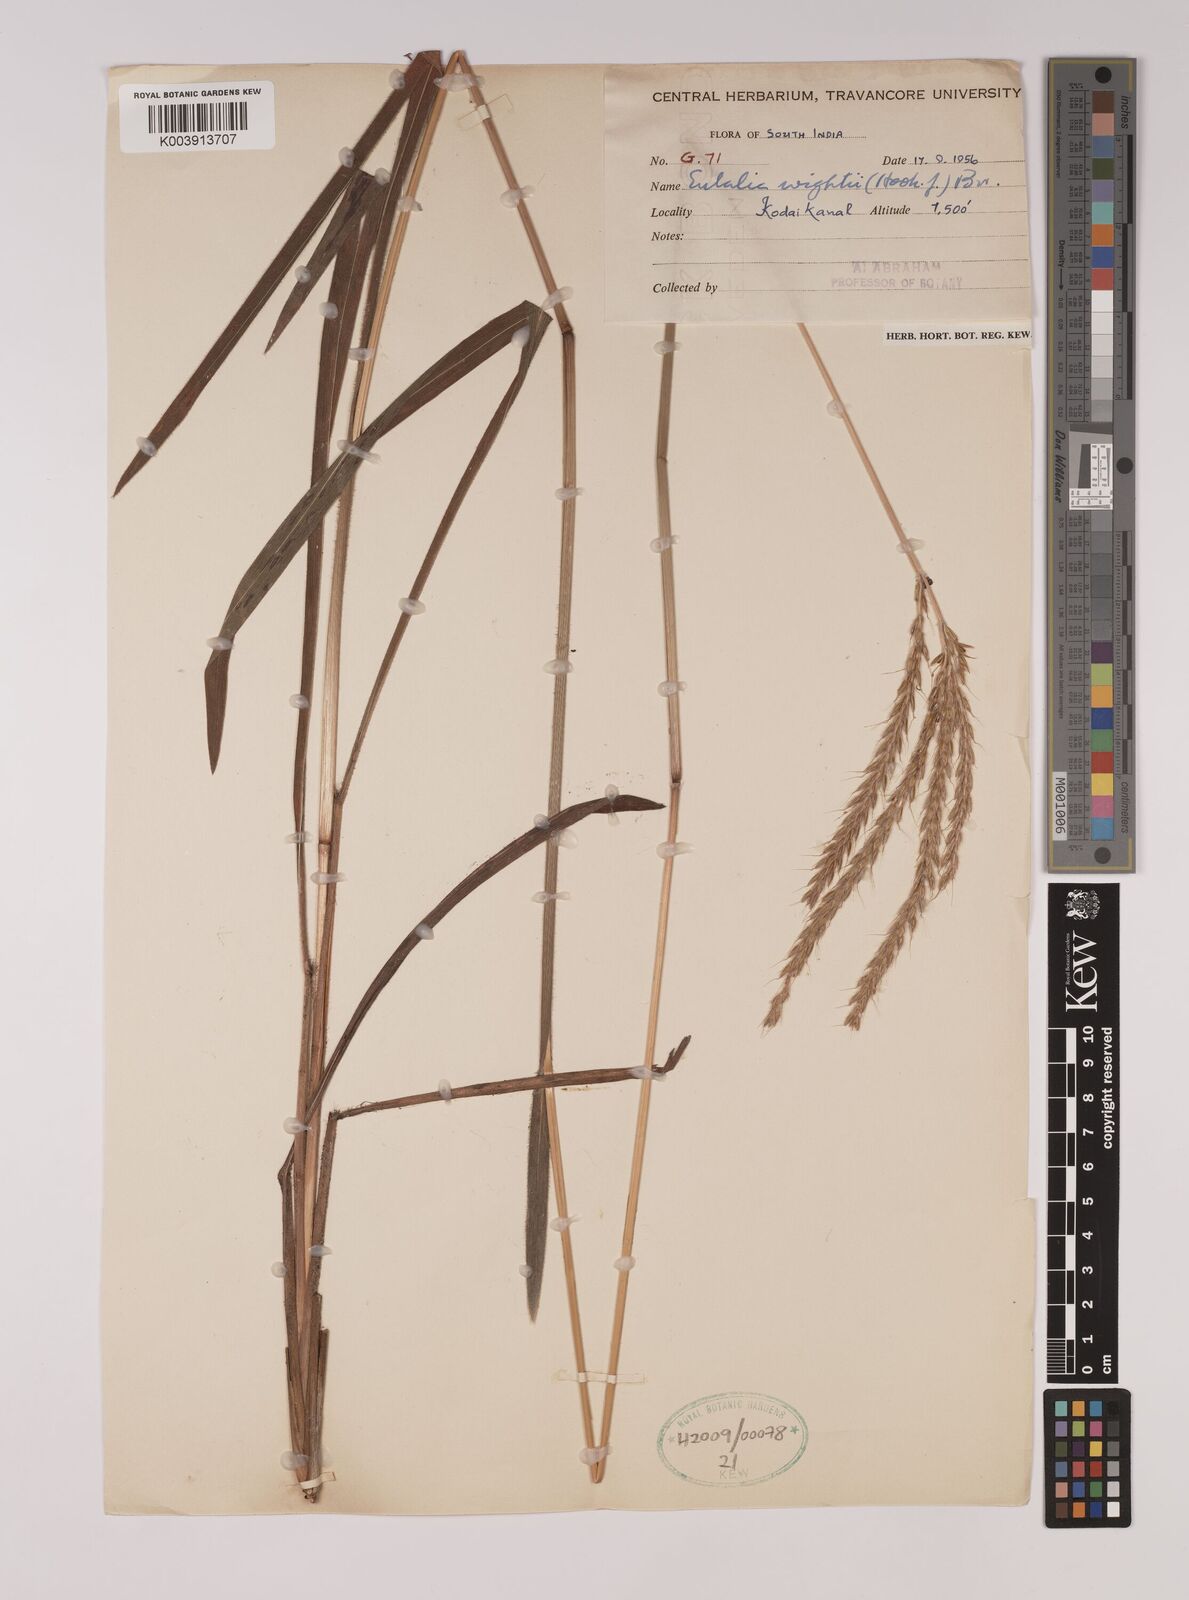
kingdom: Plantae
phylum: Tracheophyta
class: Liliopsida
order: Poales
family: Poaceae
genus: Eulalia
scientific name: Eulalia villosa
